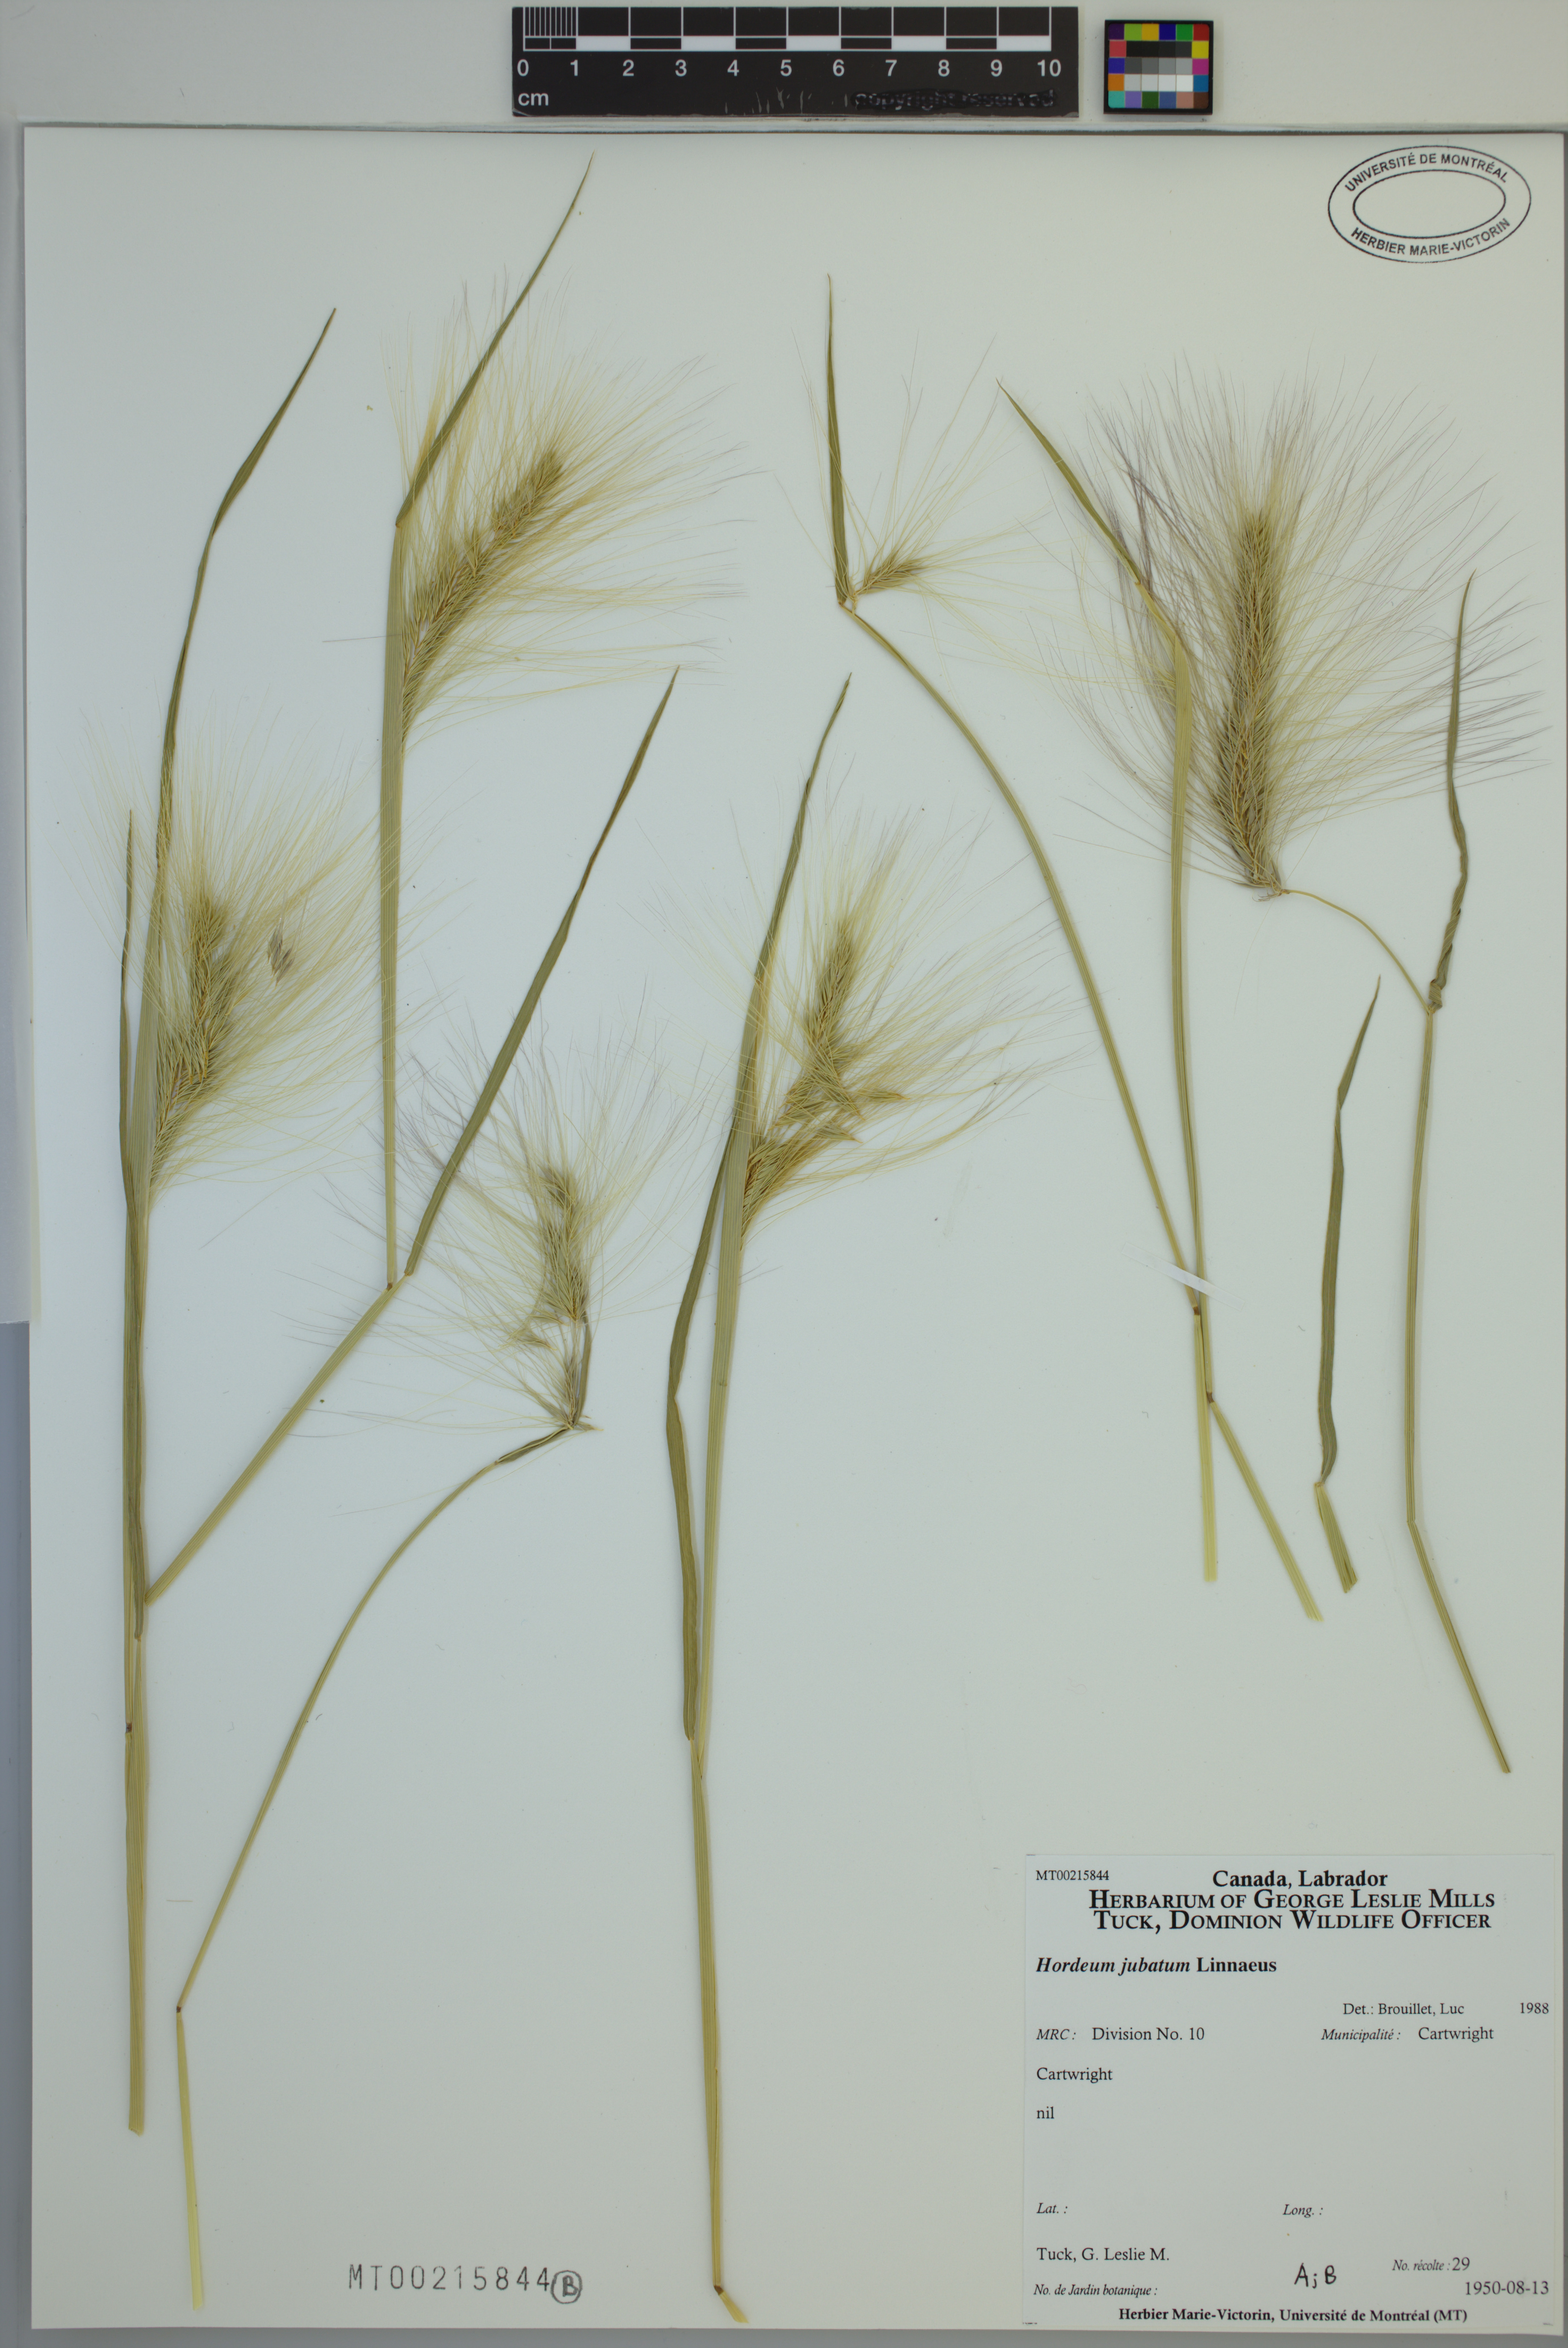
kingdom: Plantae
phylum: Tracheophyta
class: Liliopsida
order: Poales
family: Poaceae
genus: Hordeum
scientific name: Hordeum jubatum
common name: Foxtail barley
